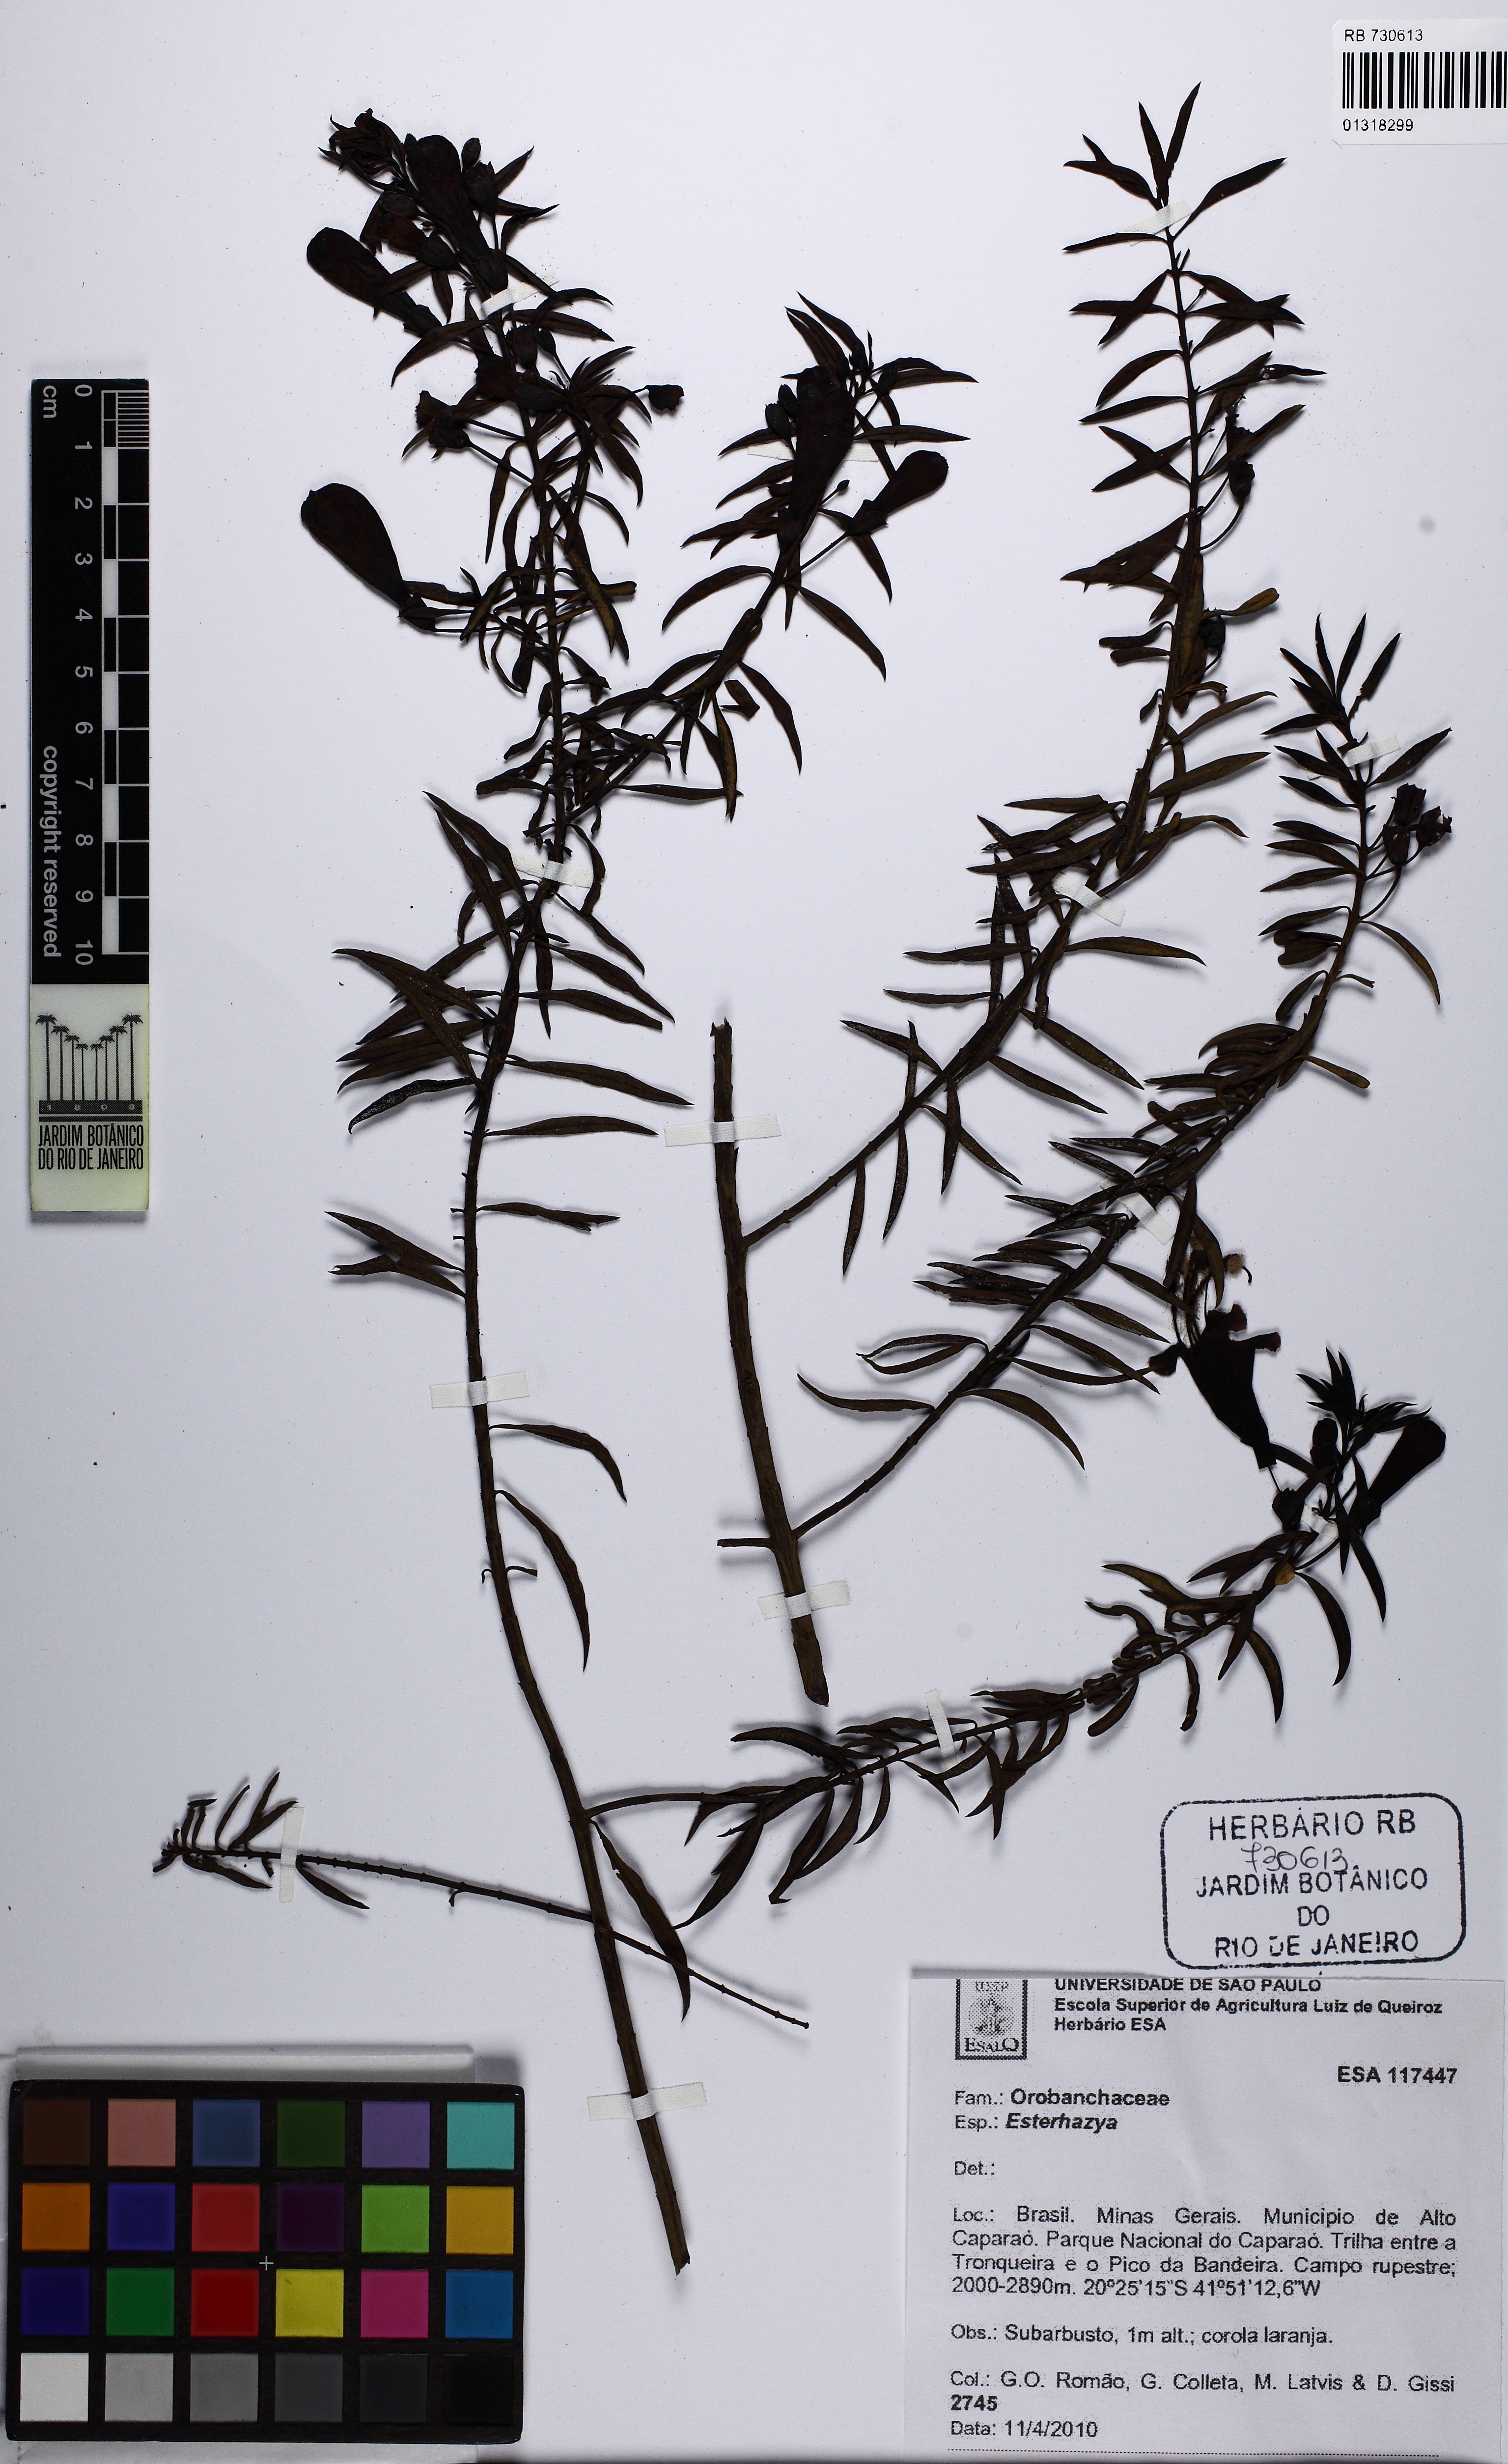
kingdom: Plantae
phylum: Tracheophyta
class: Magnoliopsida
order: Lamiales
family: Orobanchaceae
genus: Esterhazya
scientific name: Esterhazya
